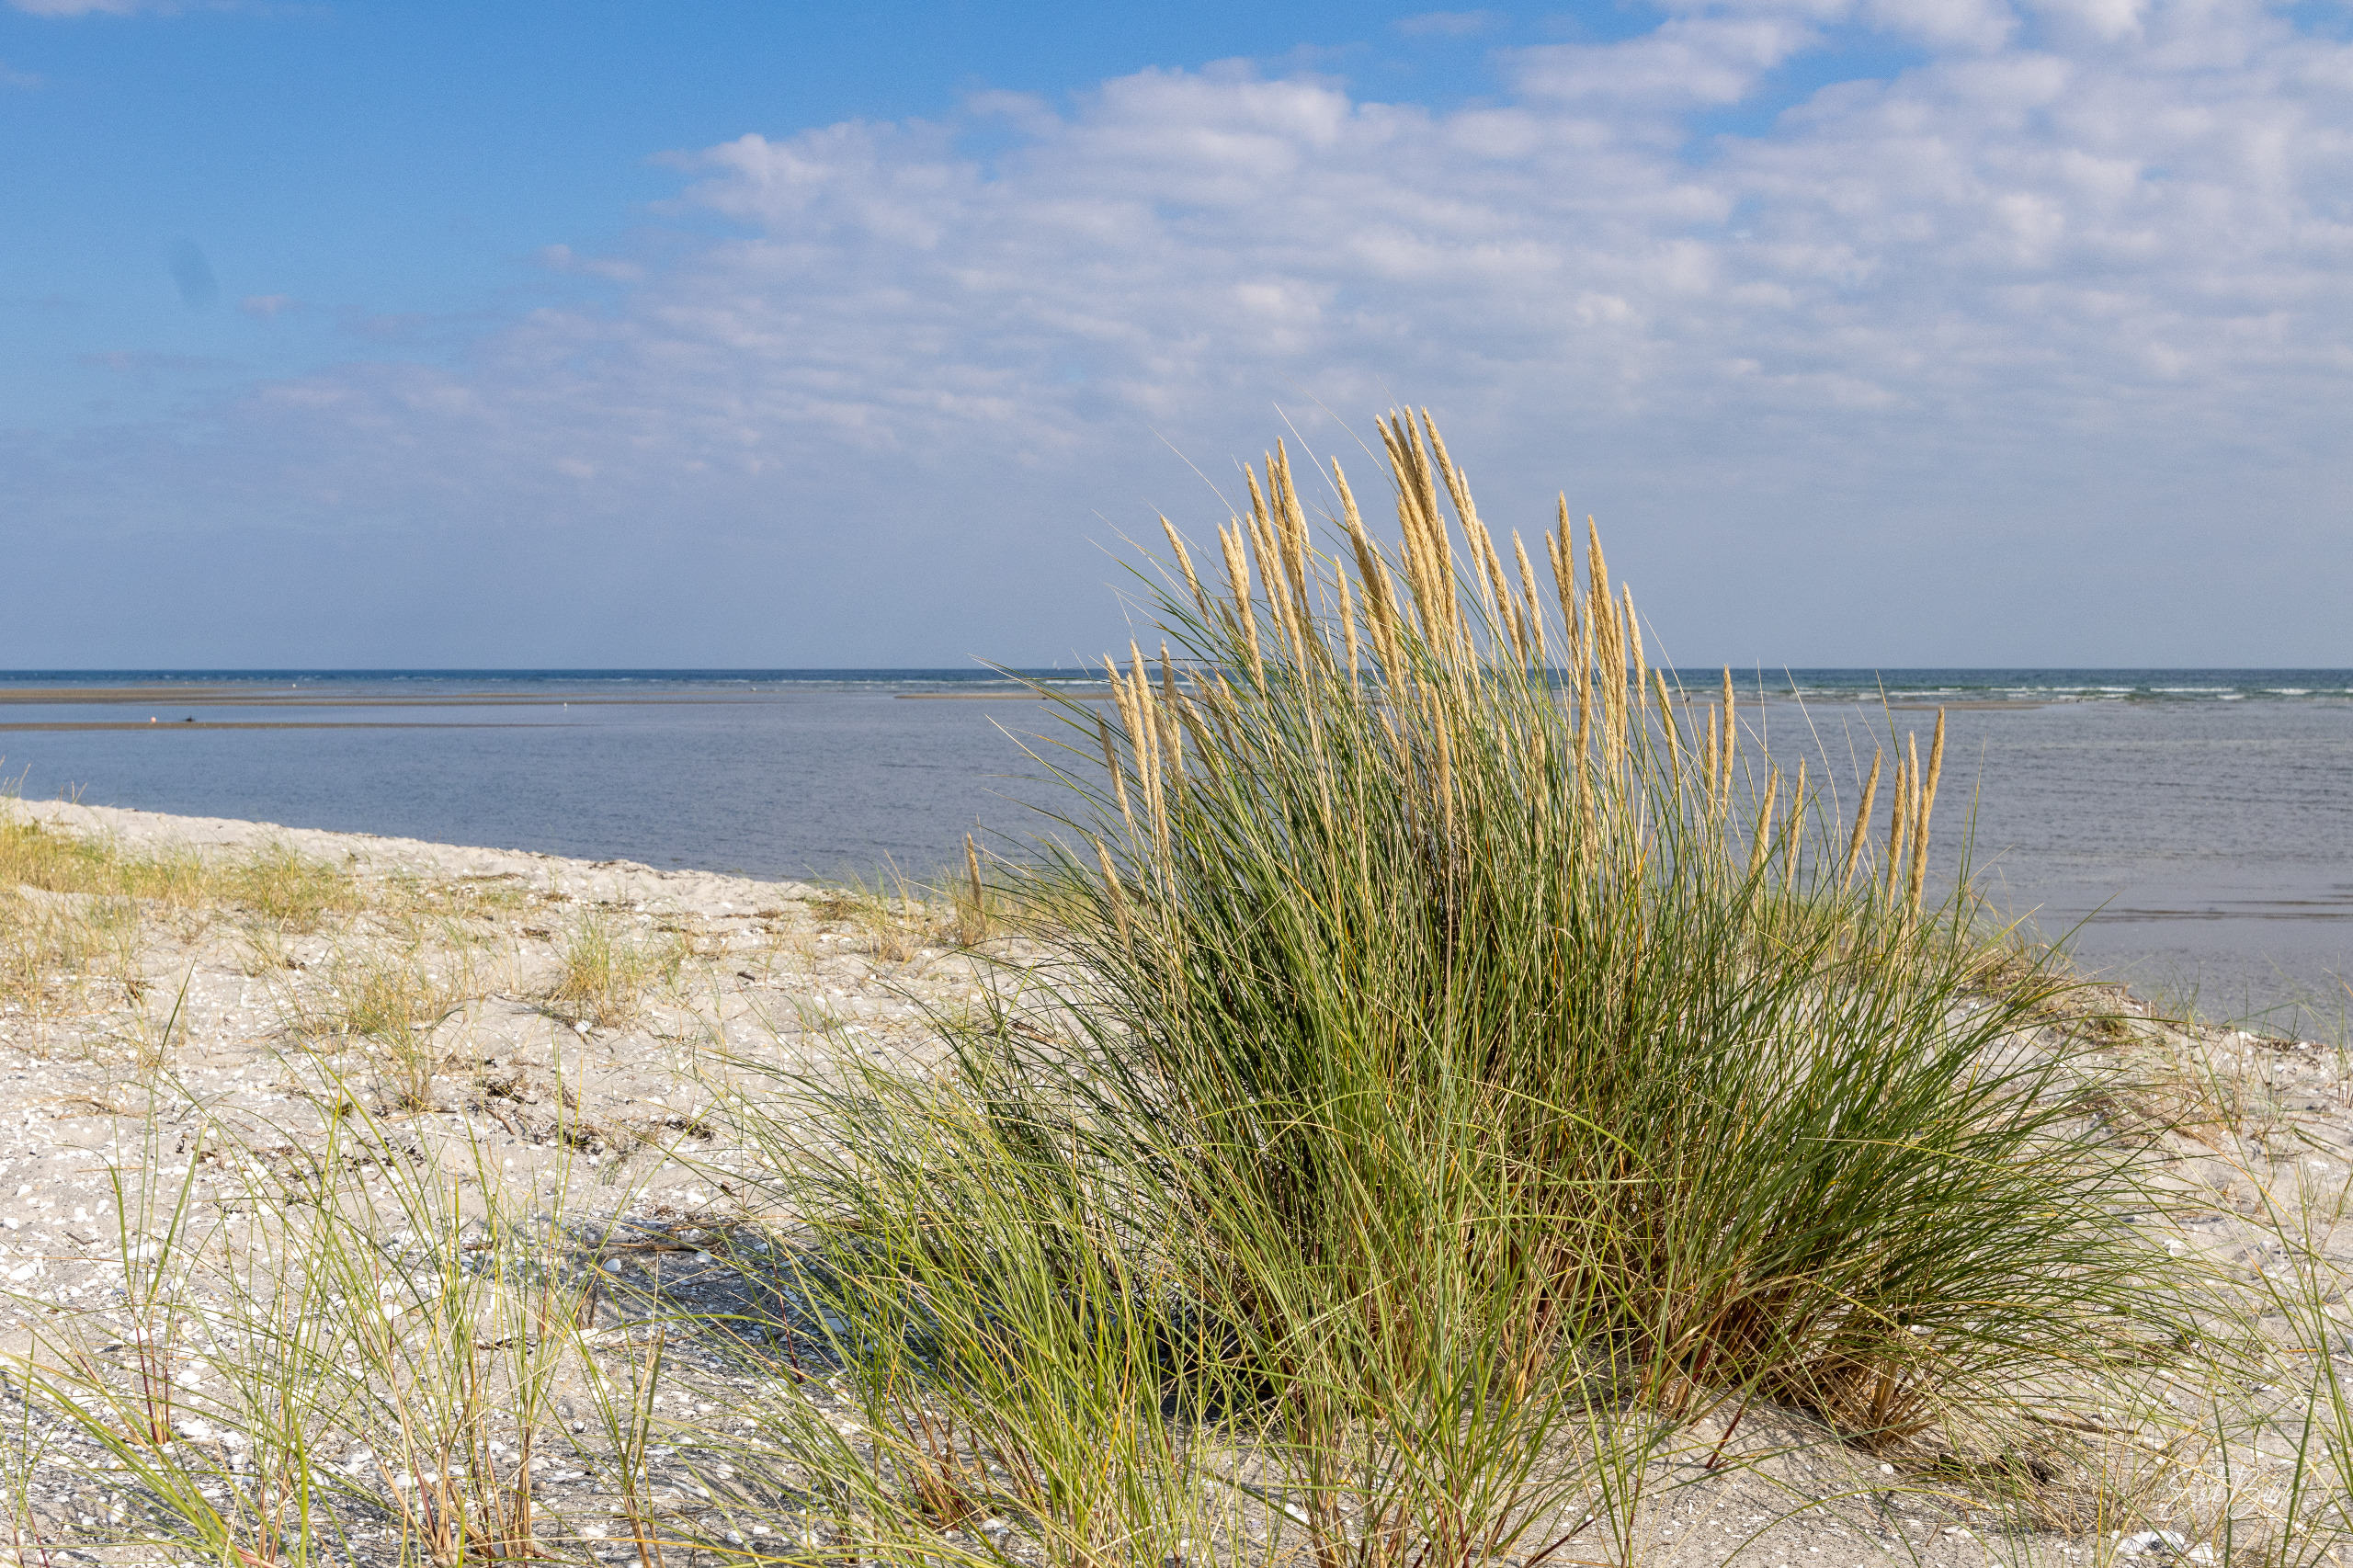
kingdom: Plantae
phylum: Tracheophyta
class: Liliopsida
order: Poales
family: Poaceae
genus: Calamagrostis
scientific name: Calamagrostis arenaria
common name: Sand-hjælme
